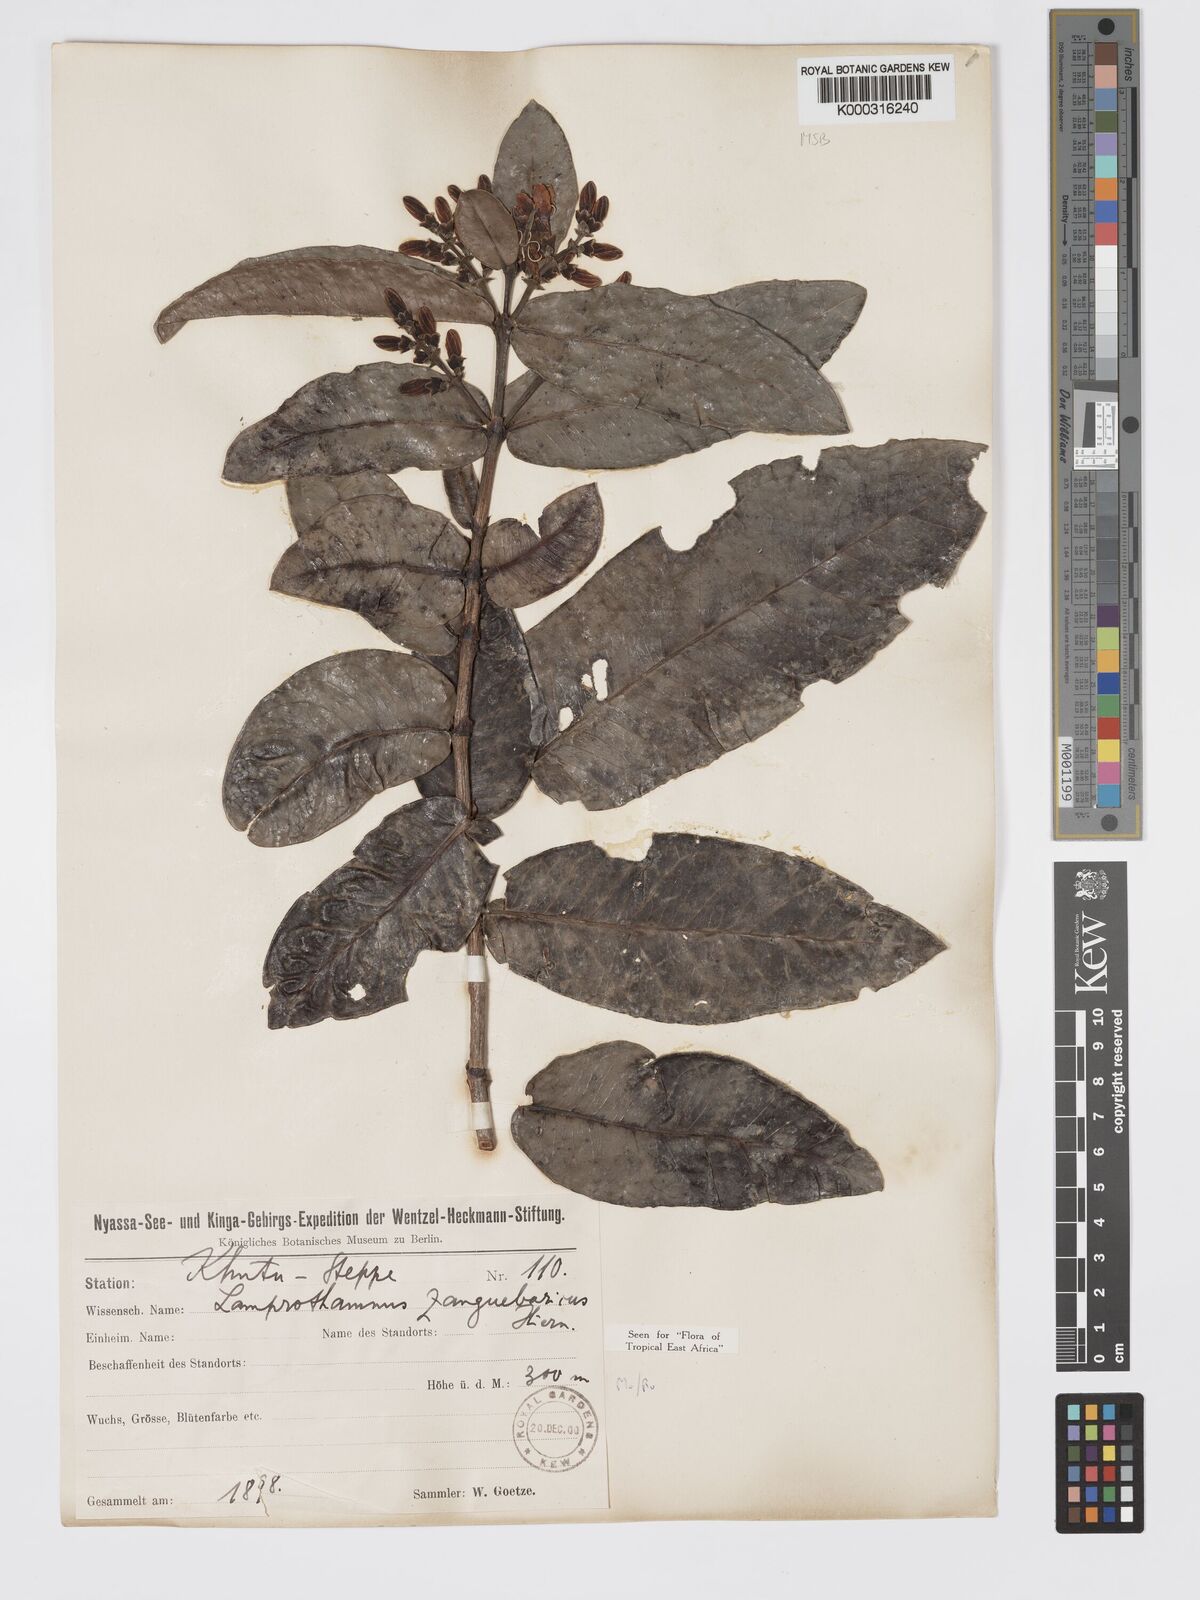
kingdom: Plantae
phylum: Tracheophyta
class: Magnoliopsida
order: Gentianales
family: Rubiaceae
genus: Lamprothamnus
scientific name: Lamprothamnus zanguebaricus
